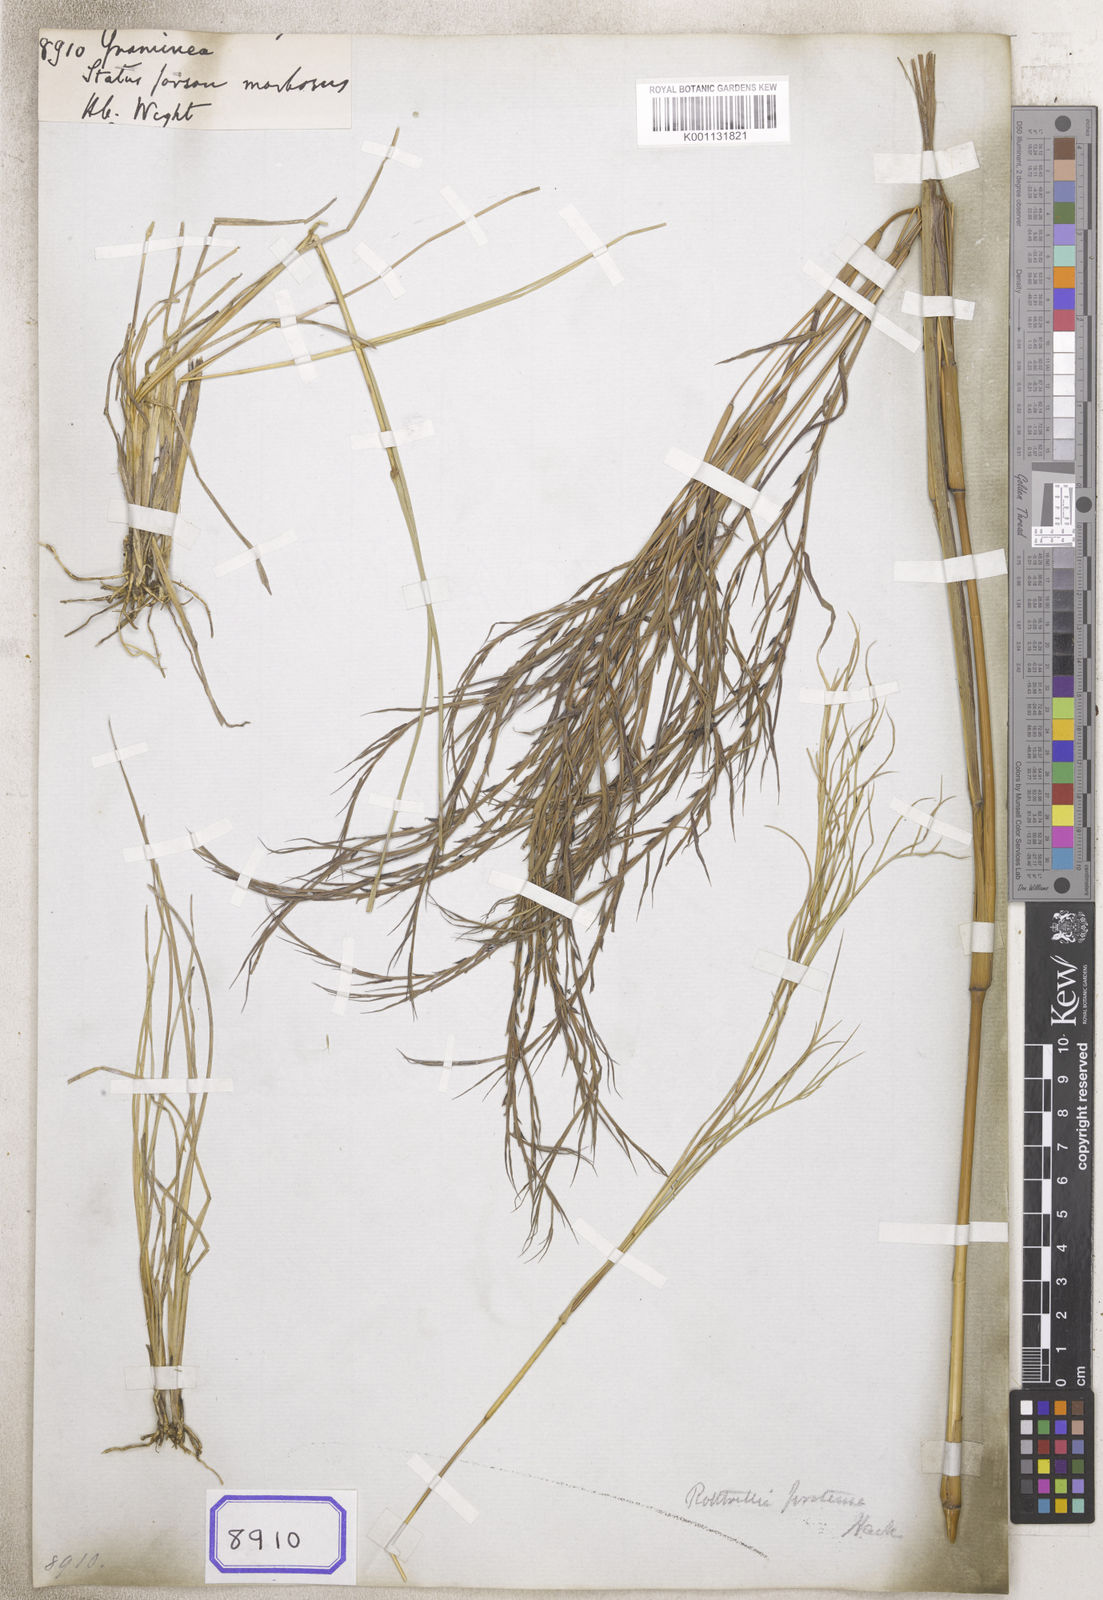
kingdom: Plantae
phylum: Tracheophyta
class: Liliopsida
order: Poales
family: Poaceae
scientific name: Poaceae
